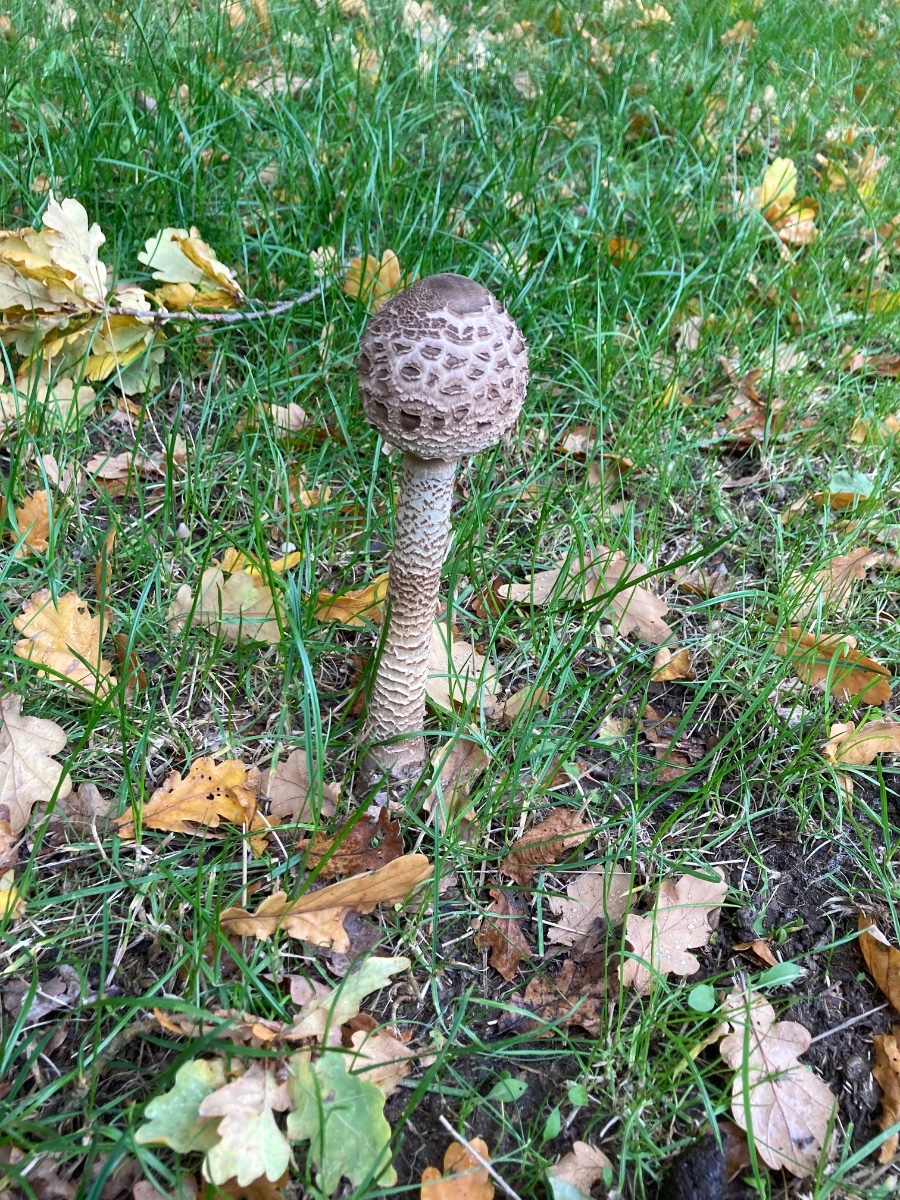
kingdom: Fungi
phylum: Basidiomycota
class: Agaricomycetes
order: Agaricales
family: Agaricaceae
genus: Macrolepiota
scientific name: Macrolepiota procera
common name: stor kæmpeparasolhat
